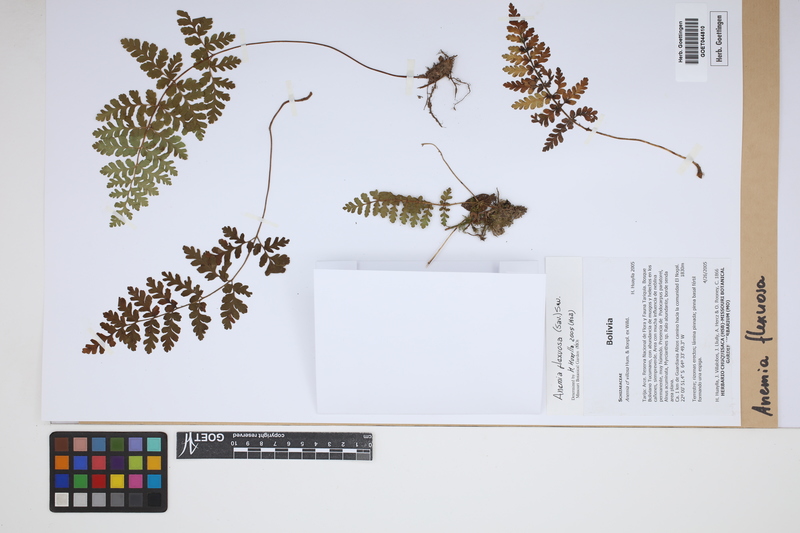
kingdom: Plantae
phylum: Tracheophyta
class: Polypodiopsida
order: Schizaeales
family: Anemiaceae
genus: Anemia
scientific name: Anemia flexuosa
